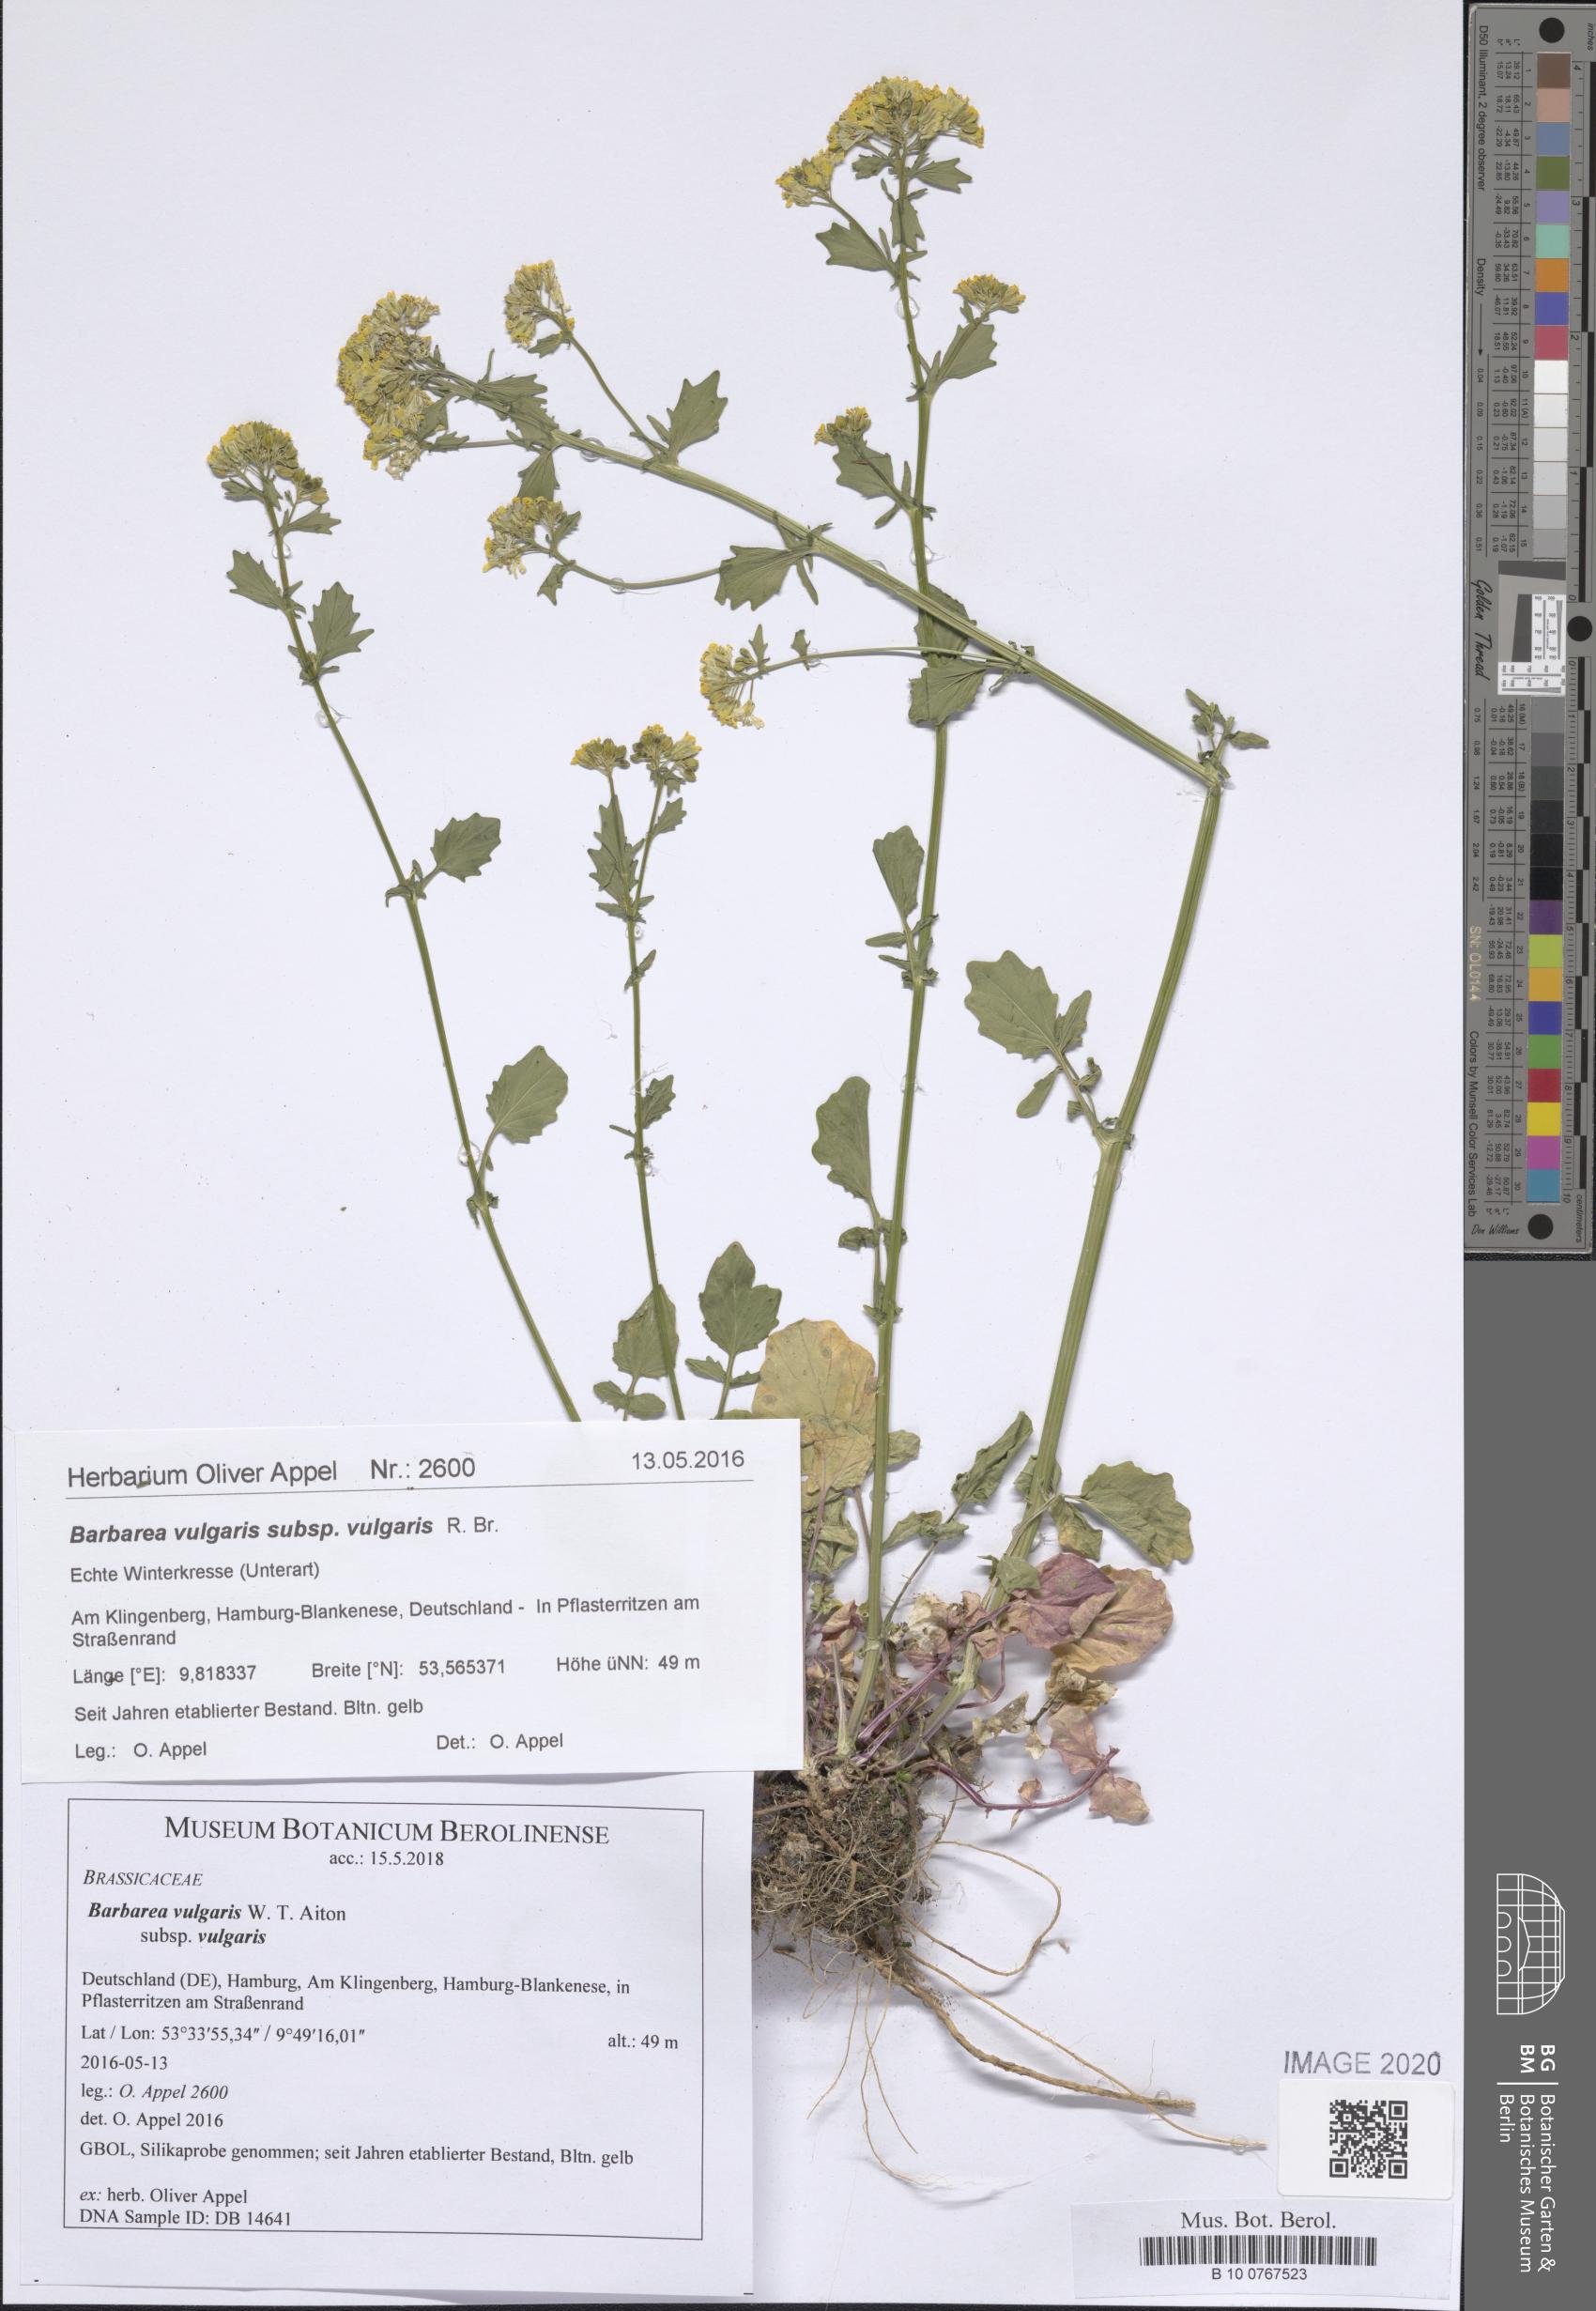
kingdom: Plantae
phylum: Tracheophyta
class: Magnoliopsida
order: Brassicales
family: Brassicaceae
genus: Barbarea
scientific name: Barbarea vulgaris
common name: Cressy-greens
